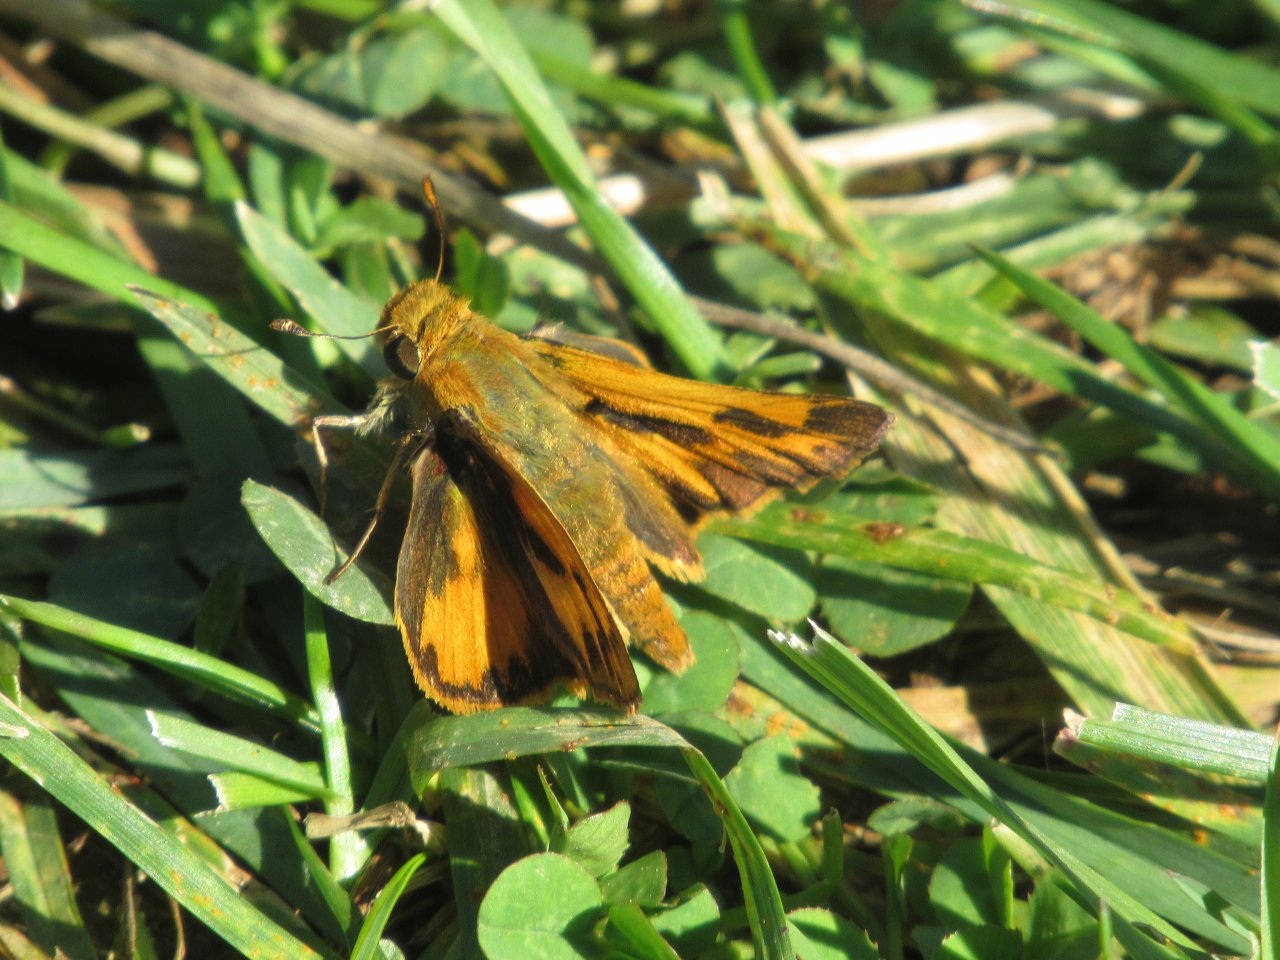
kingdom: Animalia
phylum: Arthropoda
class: Insecta
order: Lepidoptera
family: Hesperiidae
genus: Hylephila
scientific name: Hylephila phyleus
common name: Fiery Skipper
